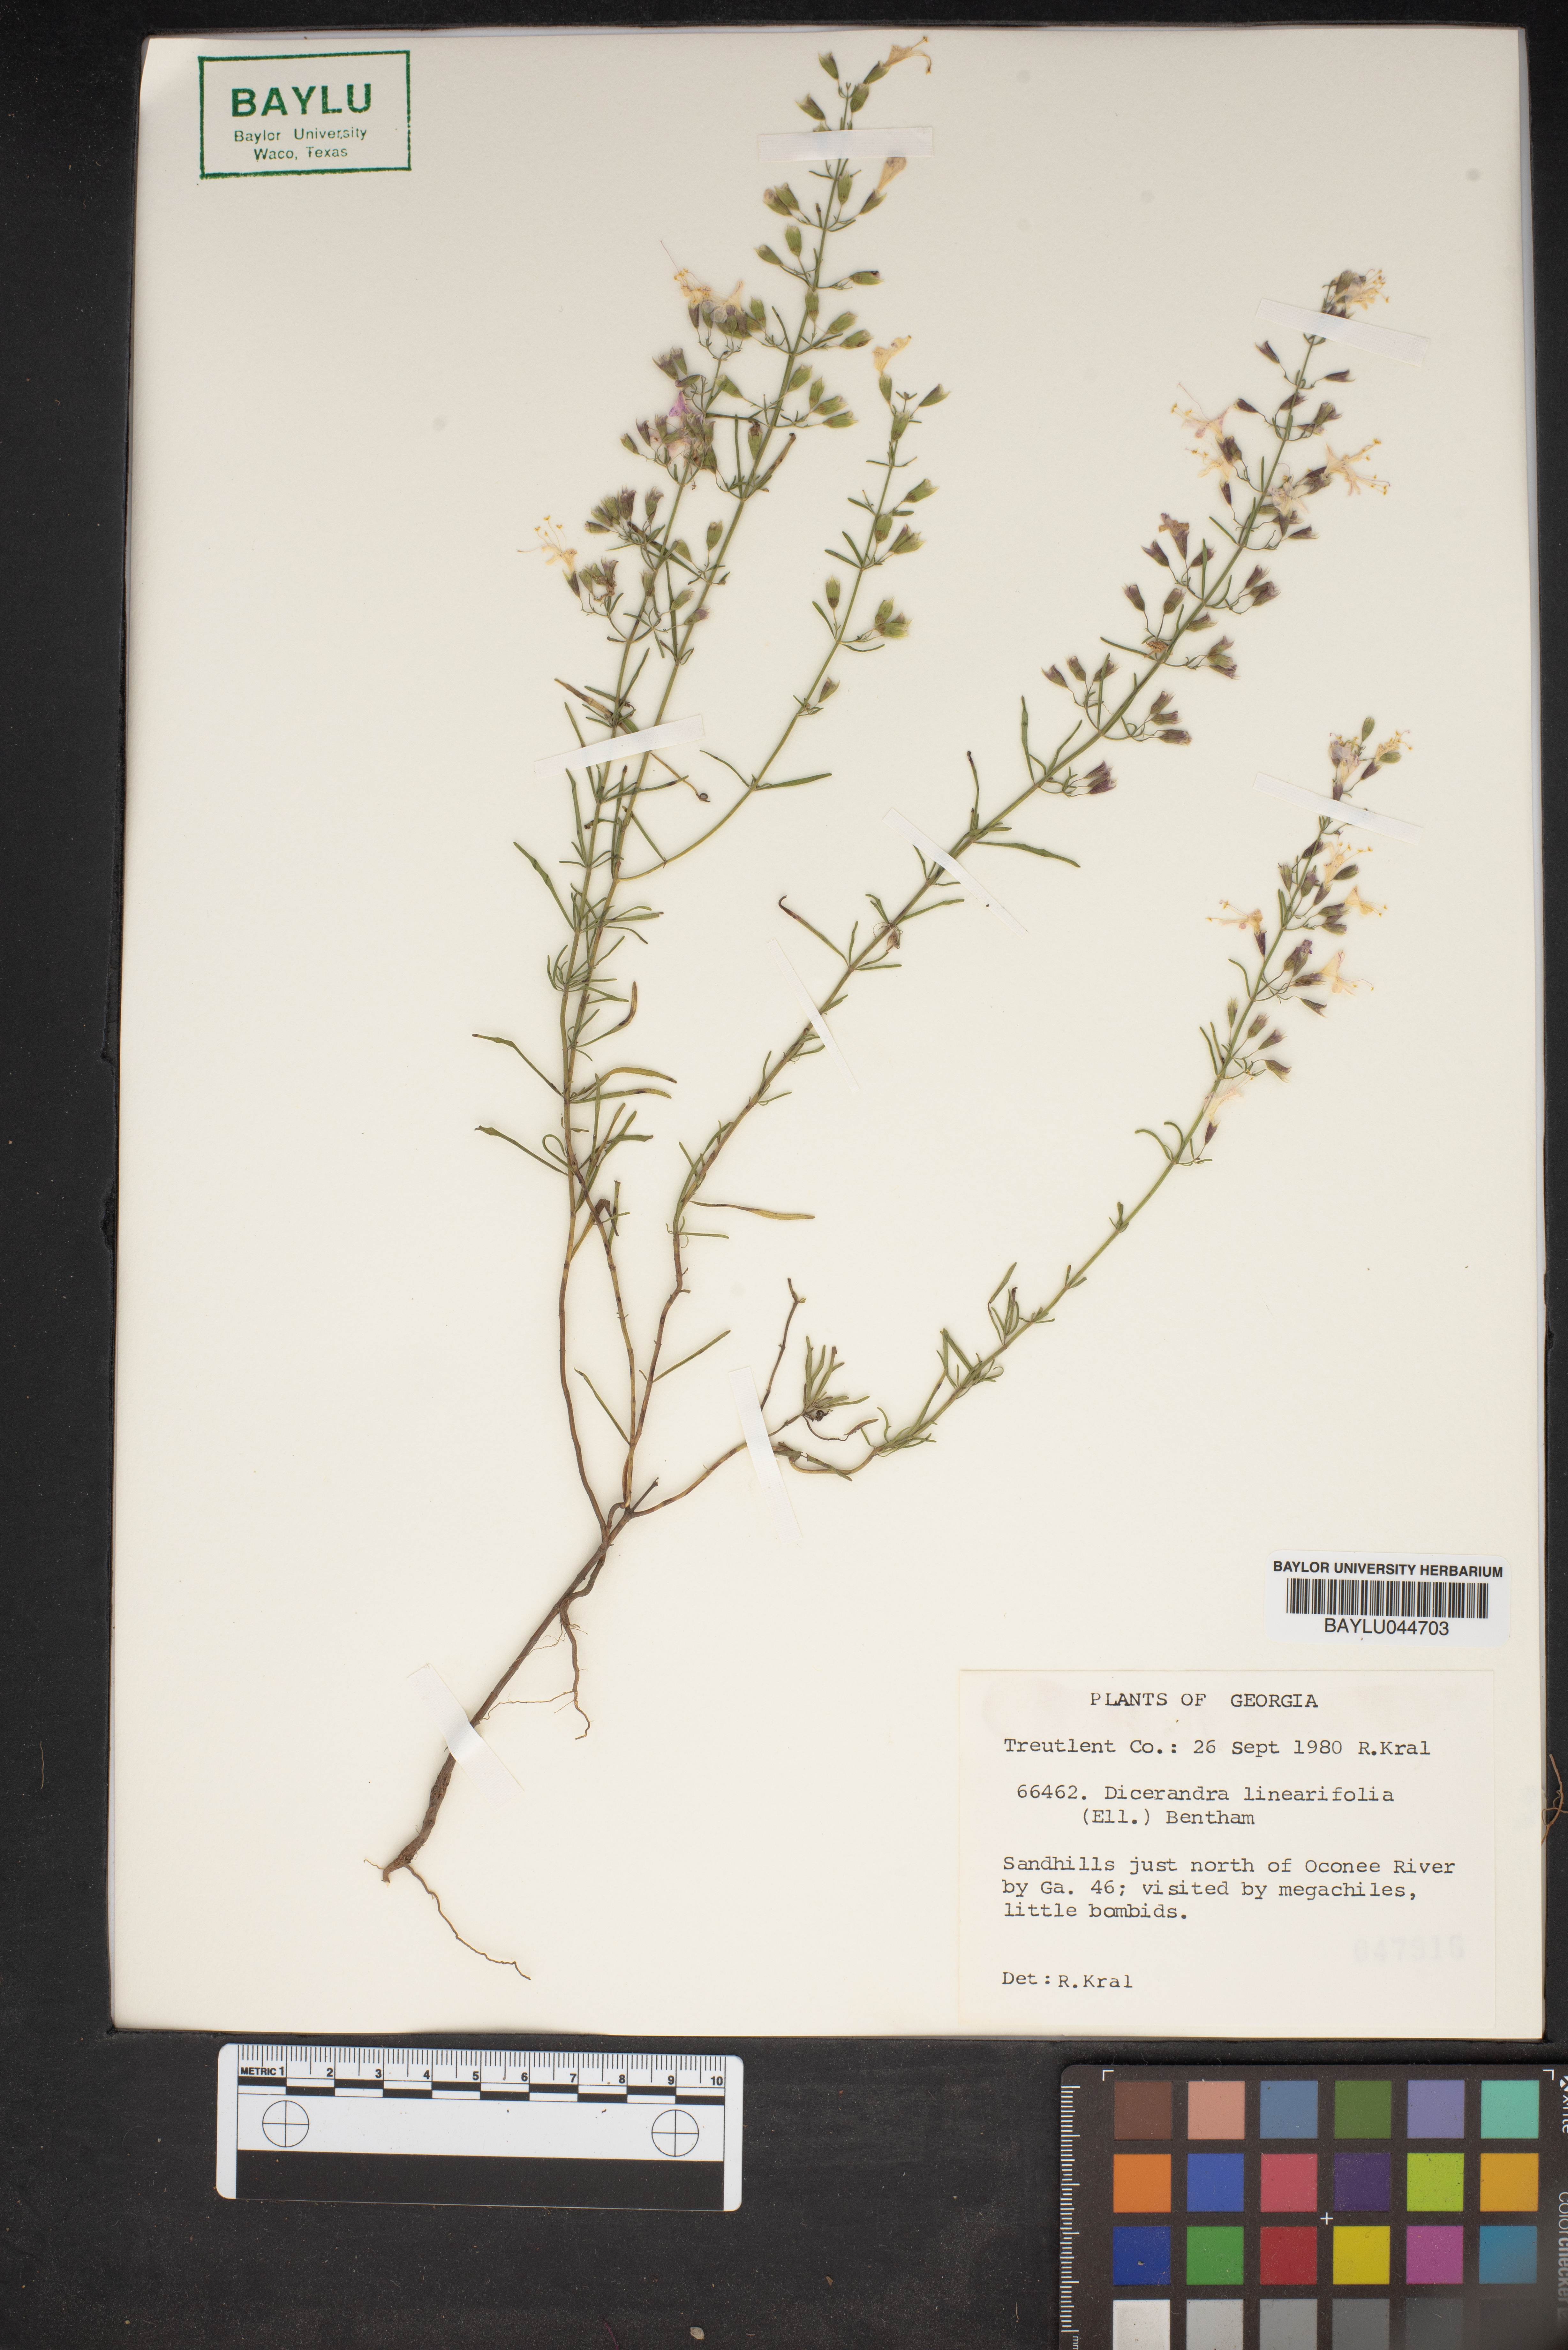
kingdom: Plantae
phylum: Tracheophyta
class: Magnoliopsida
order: Lamiales
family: Lamiaceae
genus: Dicerandra
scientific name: Dicerandra linearifolia
